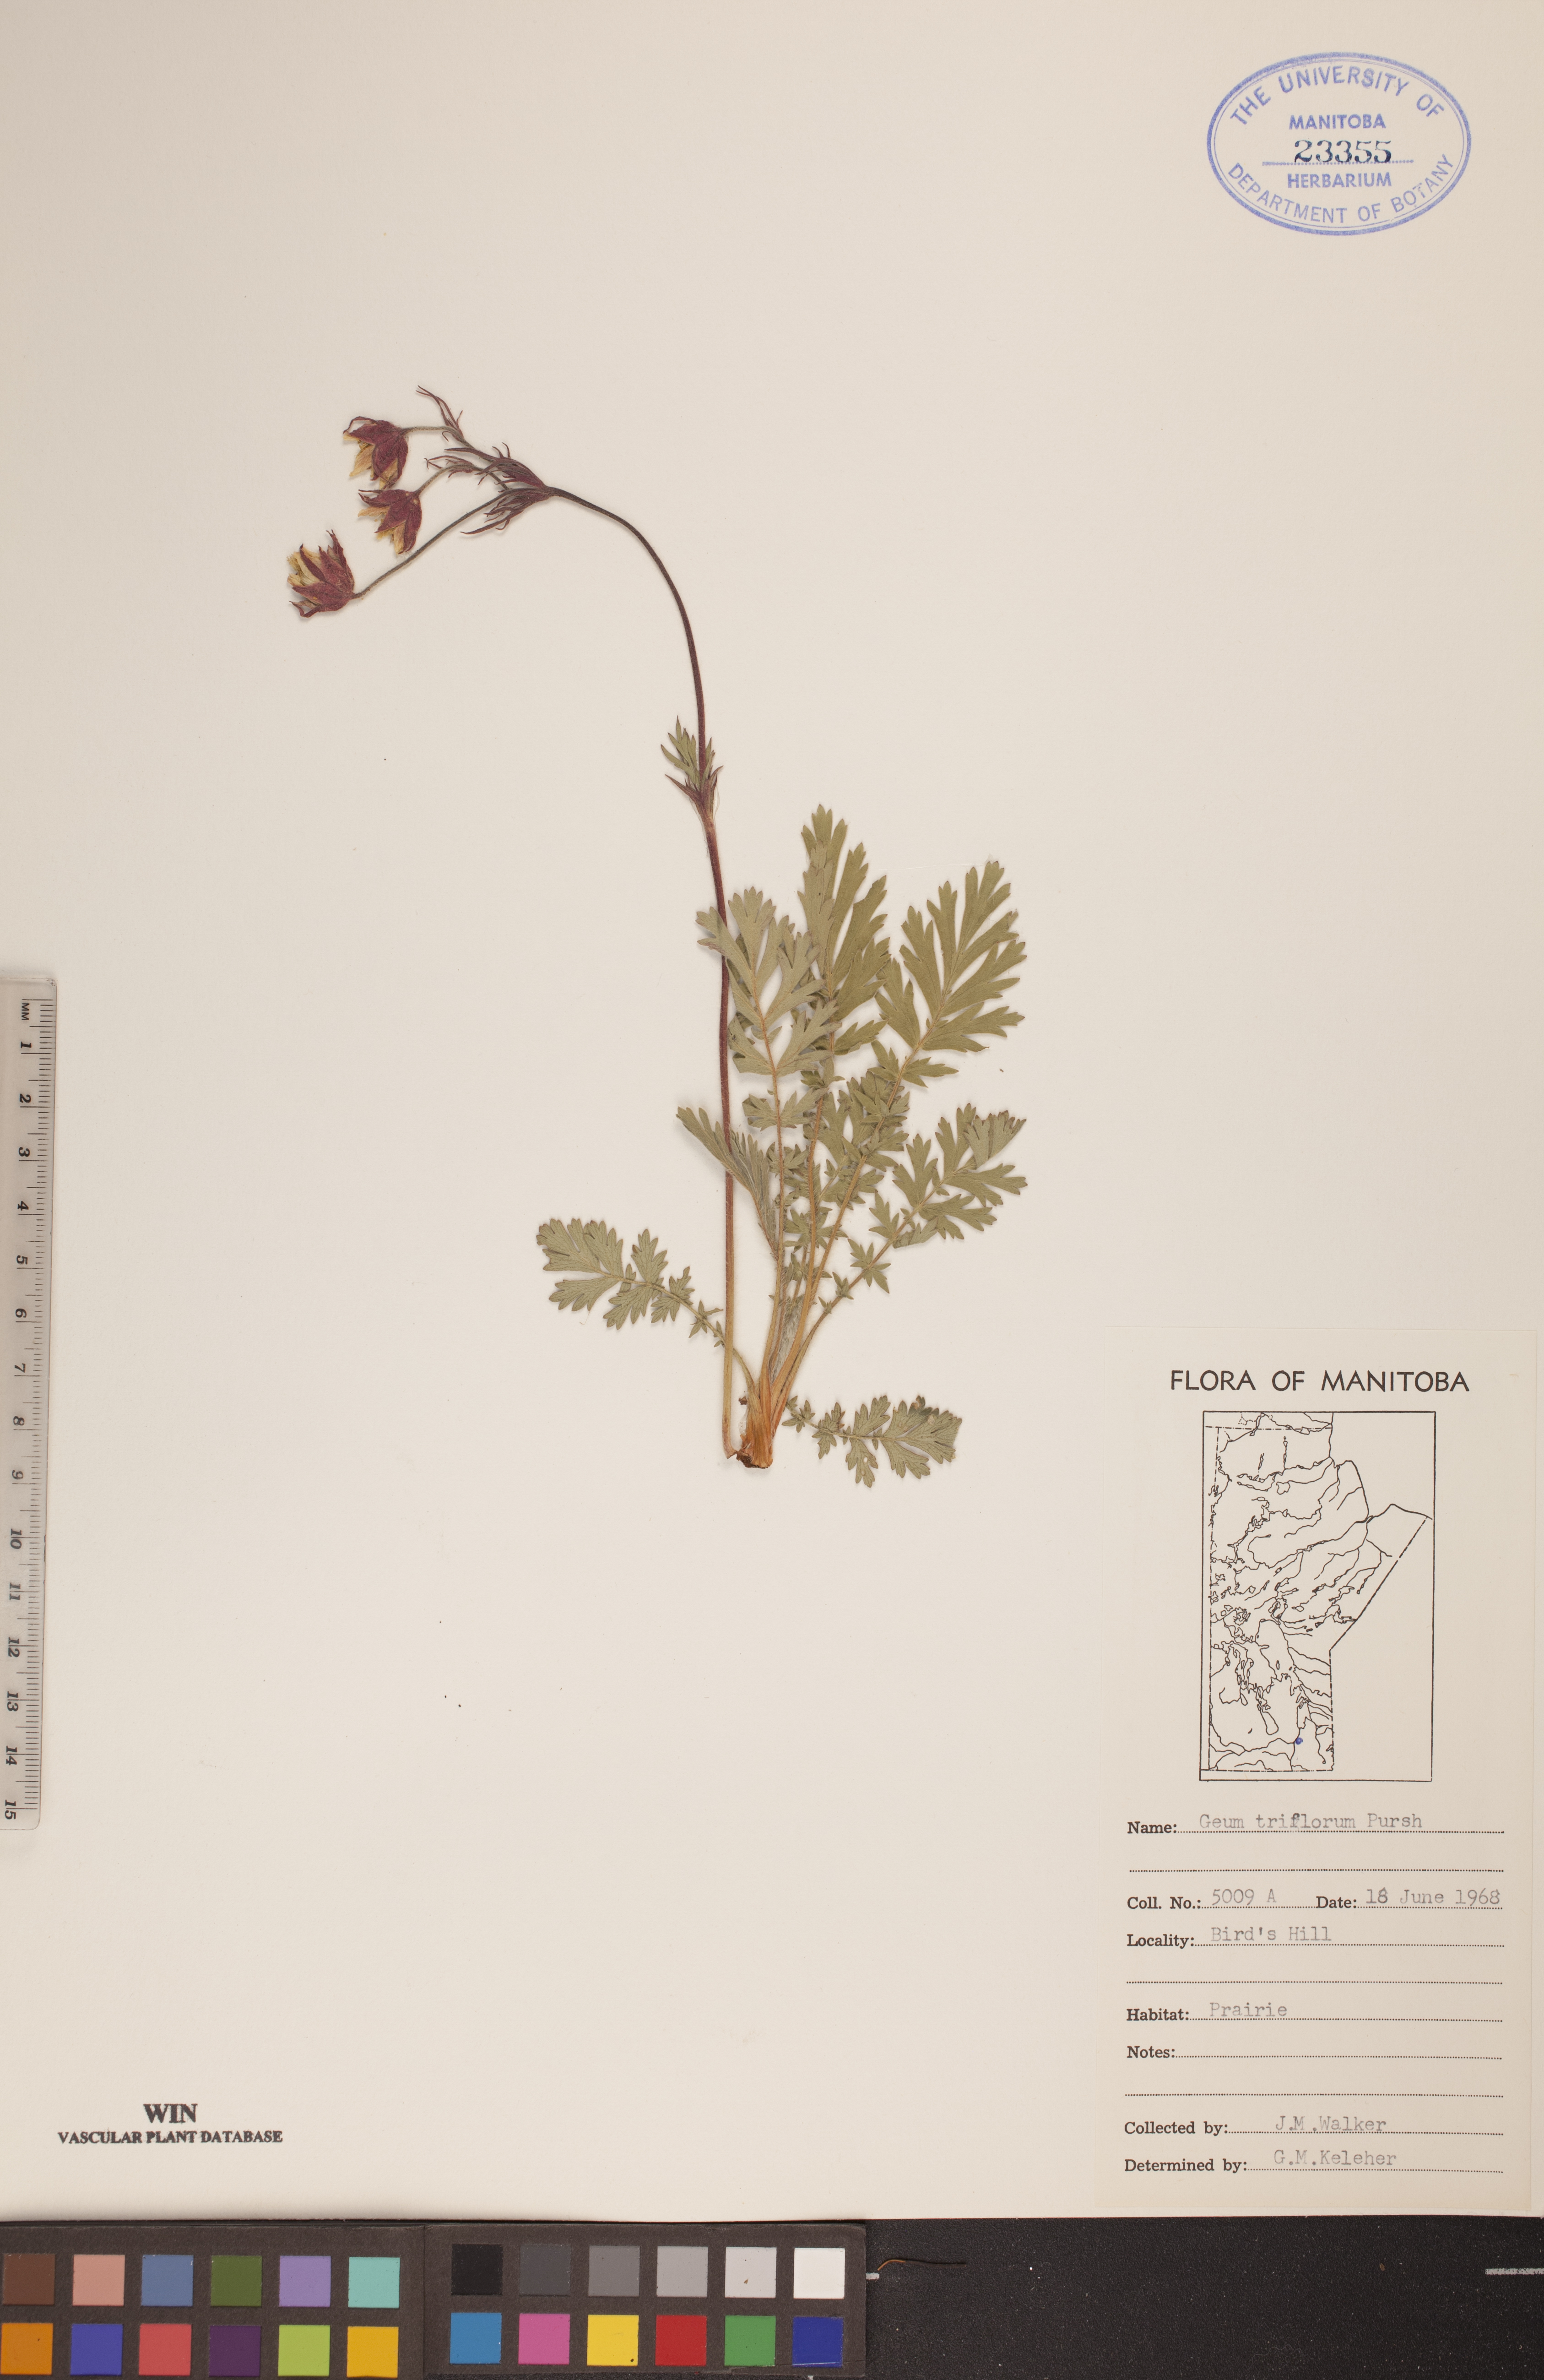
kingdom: Plantae
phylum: Tracheophyta
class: Magnoliopsida
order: Rosales
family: Rosaceae
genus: Geum
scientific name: Geum triflorum
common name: Old man's whiskers
